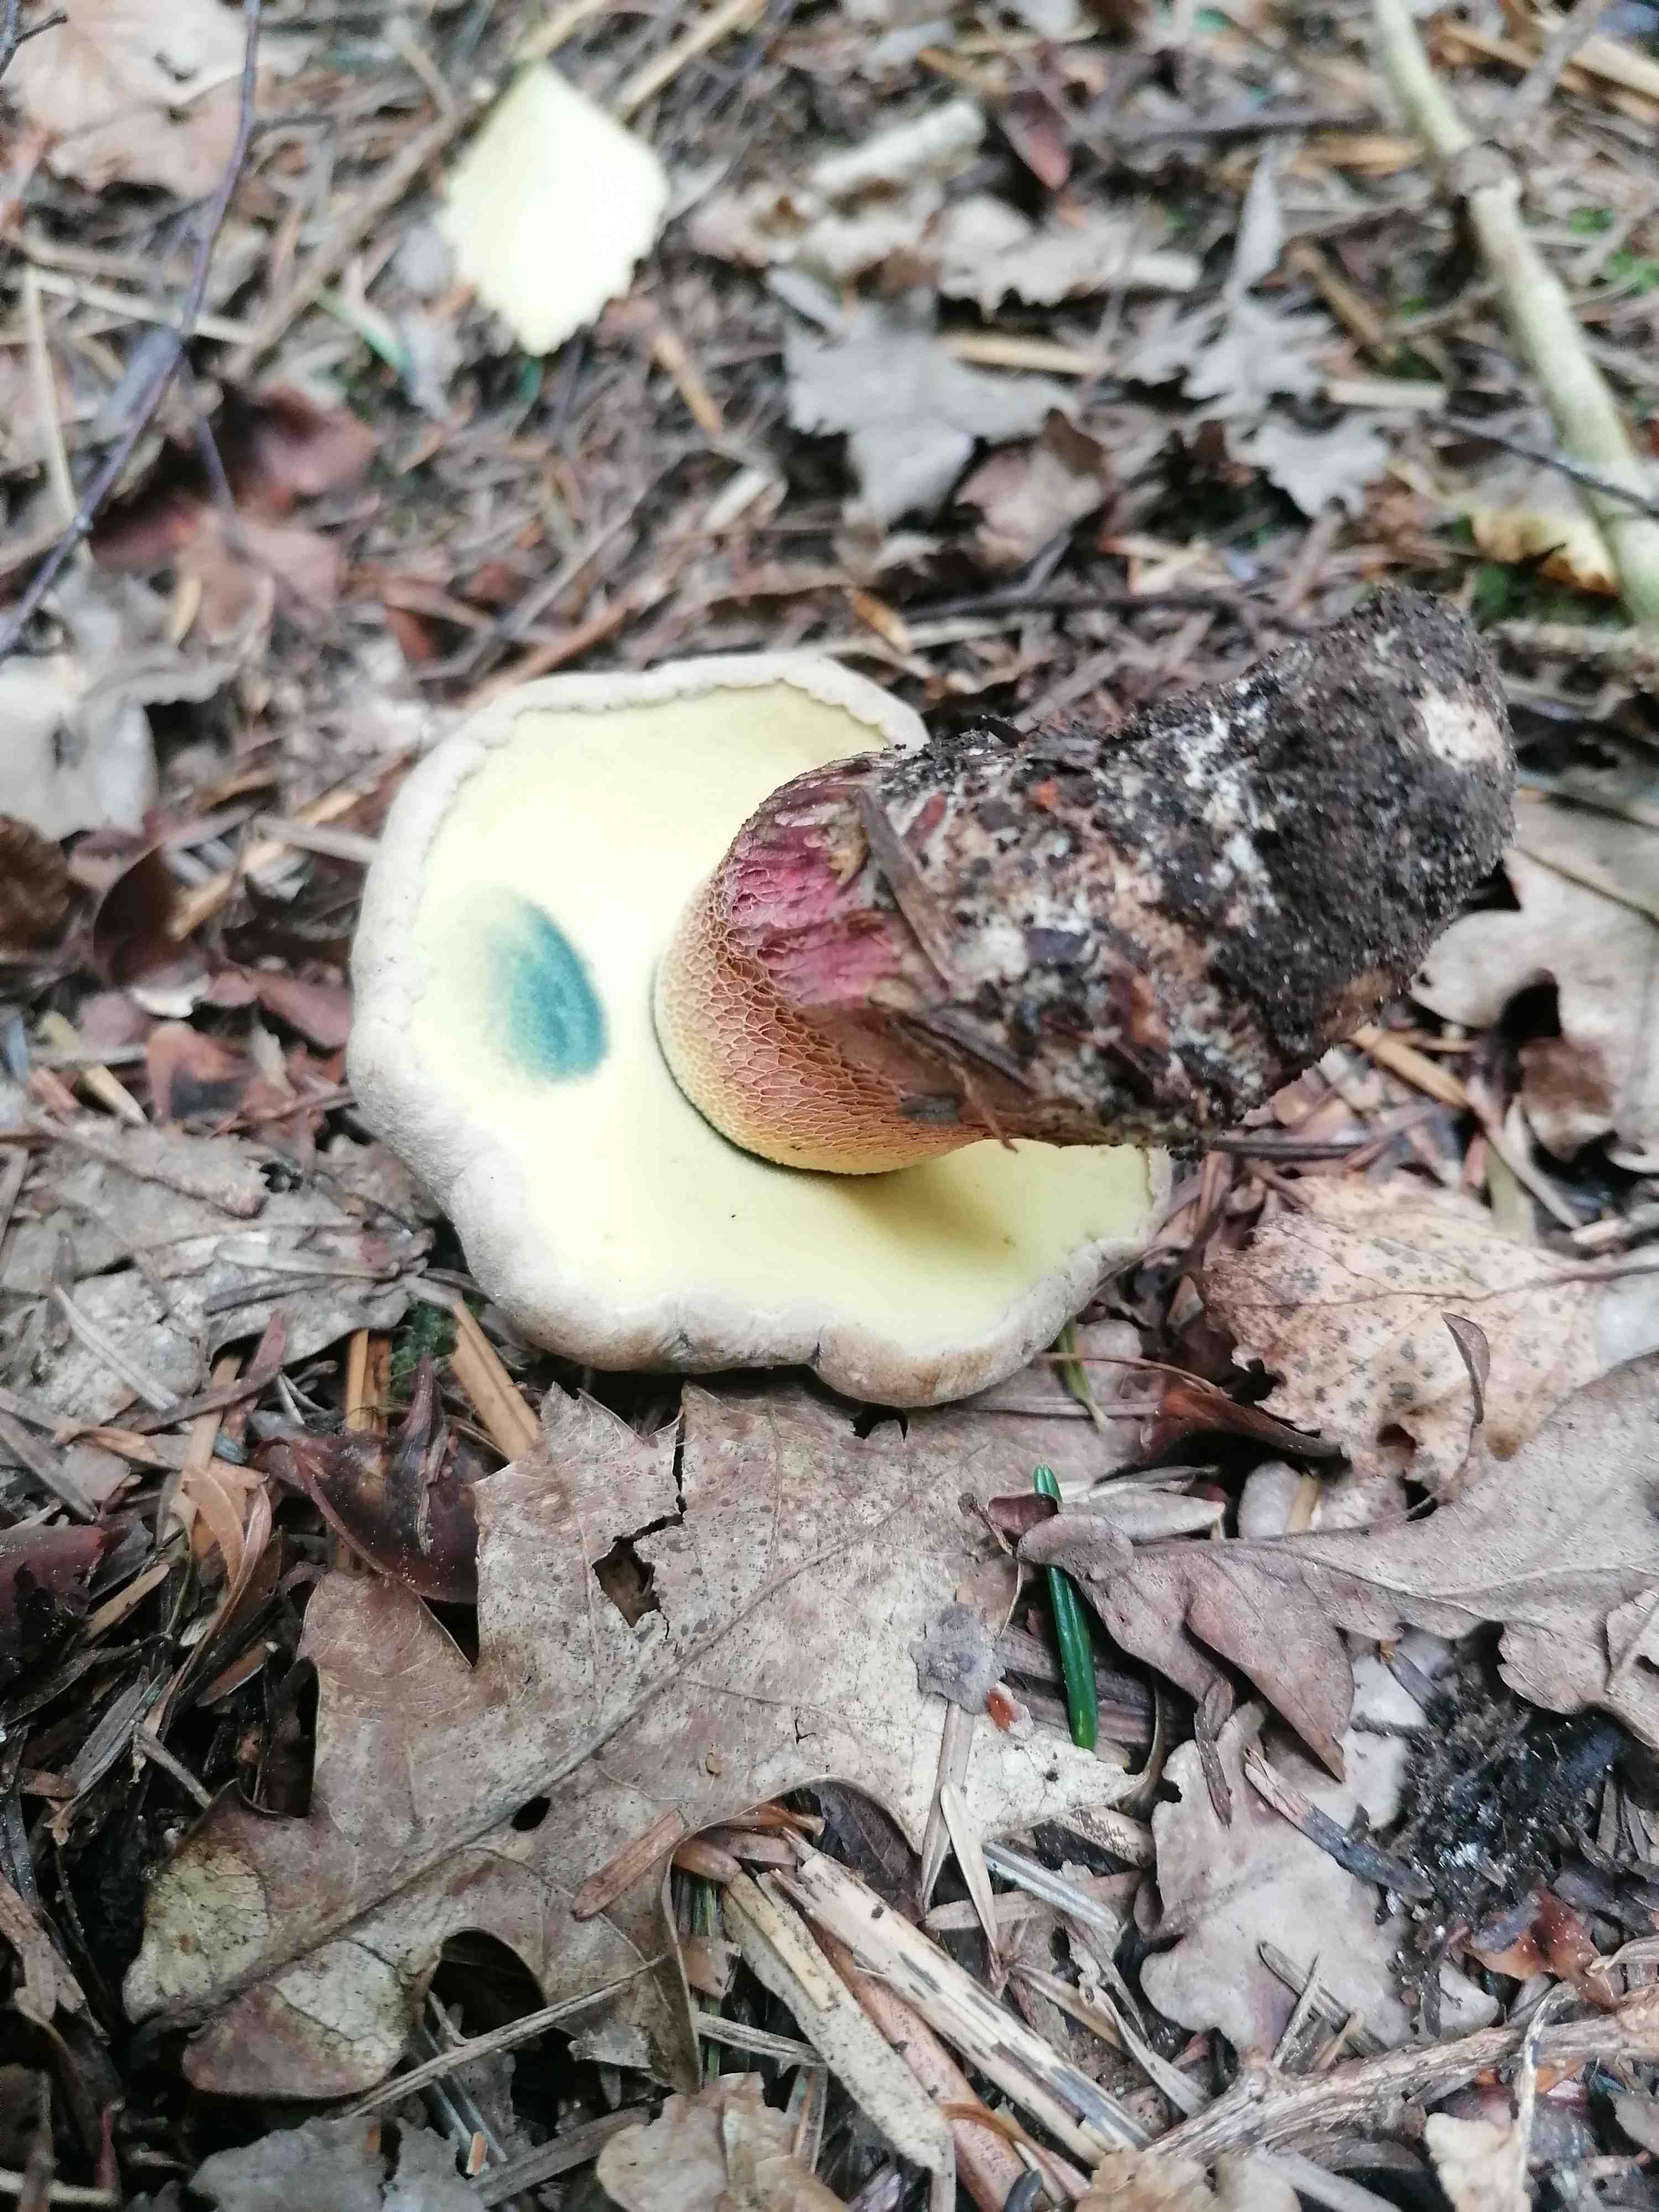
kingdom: Fungi
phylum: Basidiomycota
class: Agaricomycetes
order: Boletales
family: Boletaceae
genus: Caloboletus
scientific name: Caloboletus calopus
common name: skønfodet rørhat
